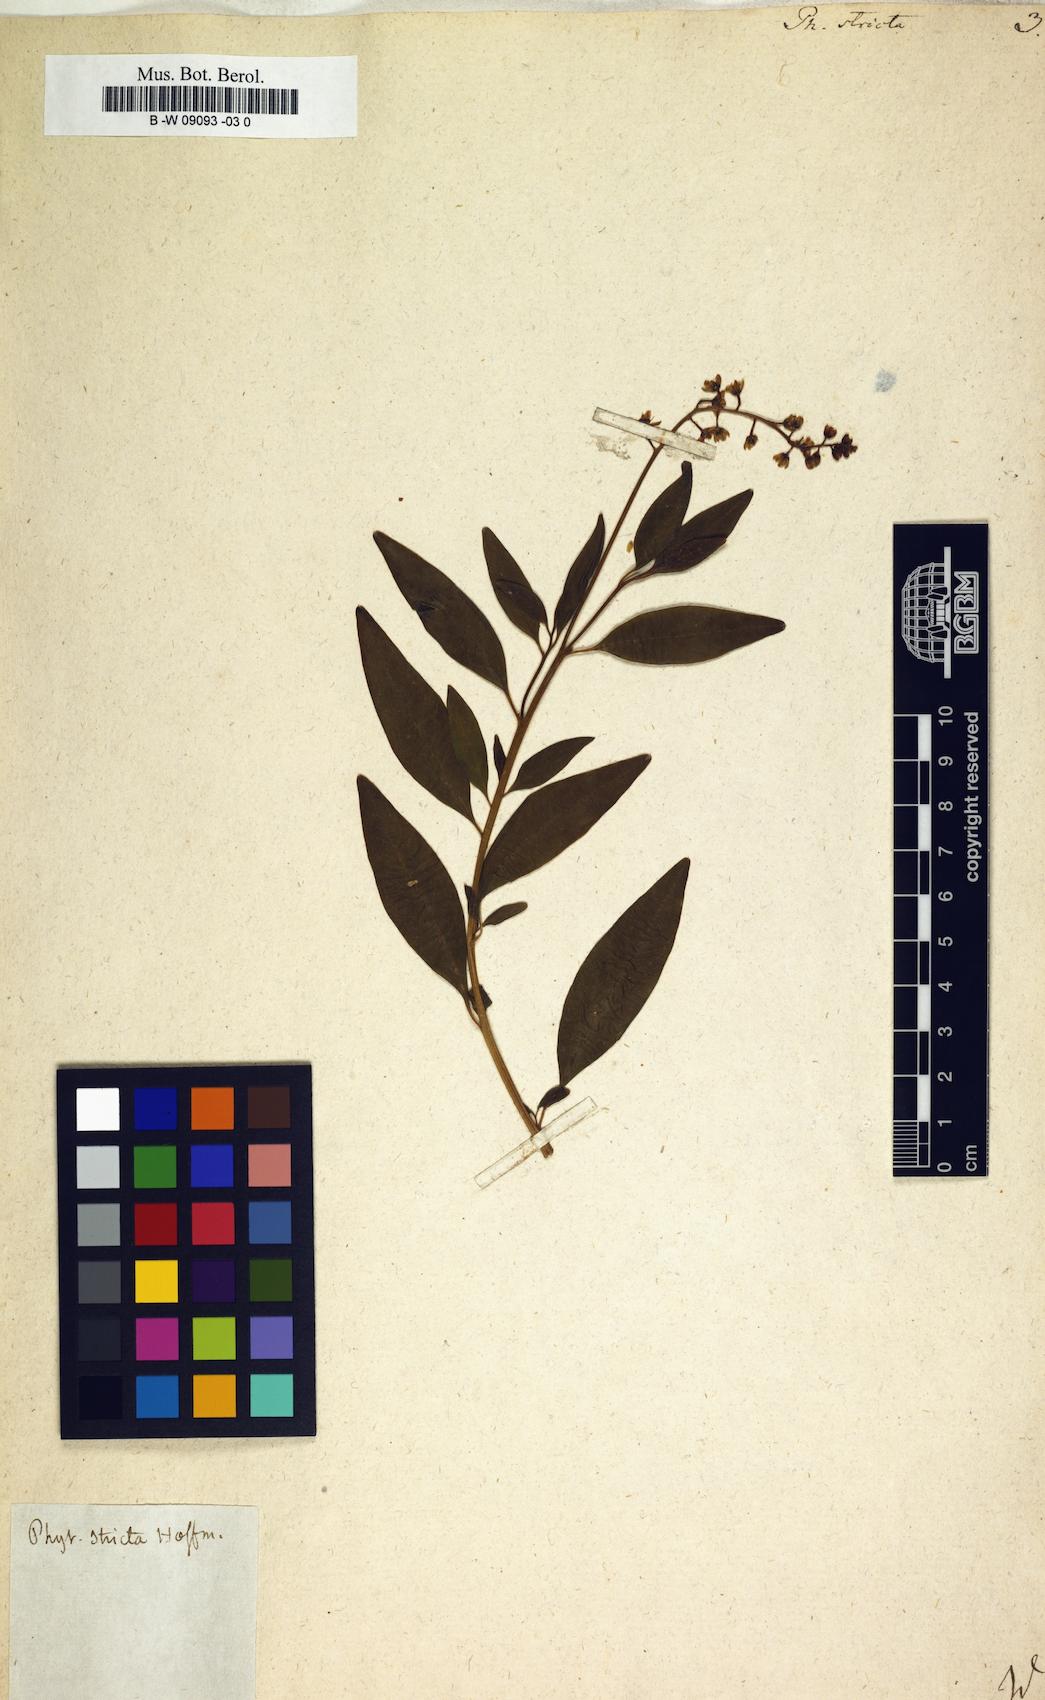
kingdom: Plantae
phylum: Tracheophyta
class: Magnoliopsida
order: Caryophyllales
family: Phytolaccaceae
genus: Phytolacca
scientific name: Phytolacca heptandra
